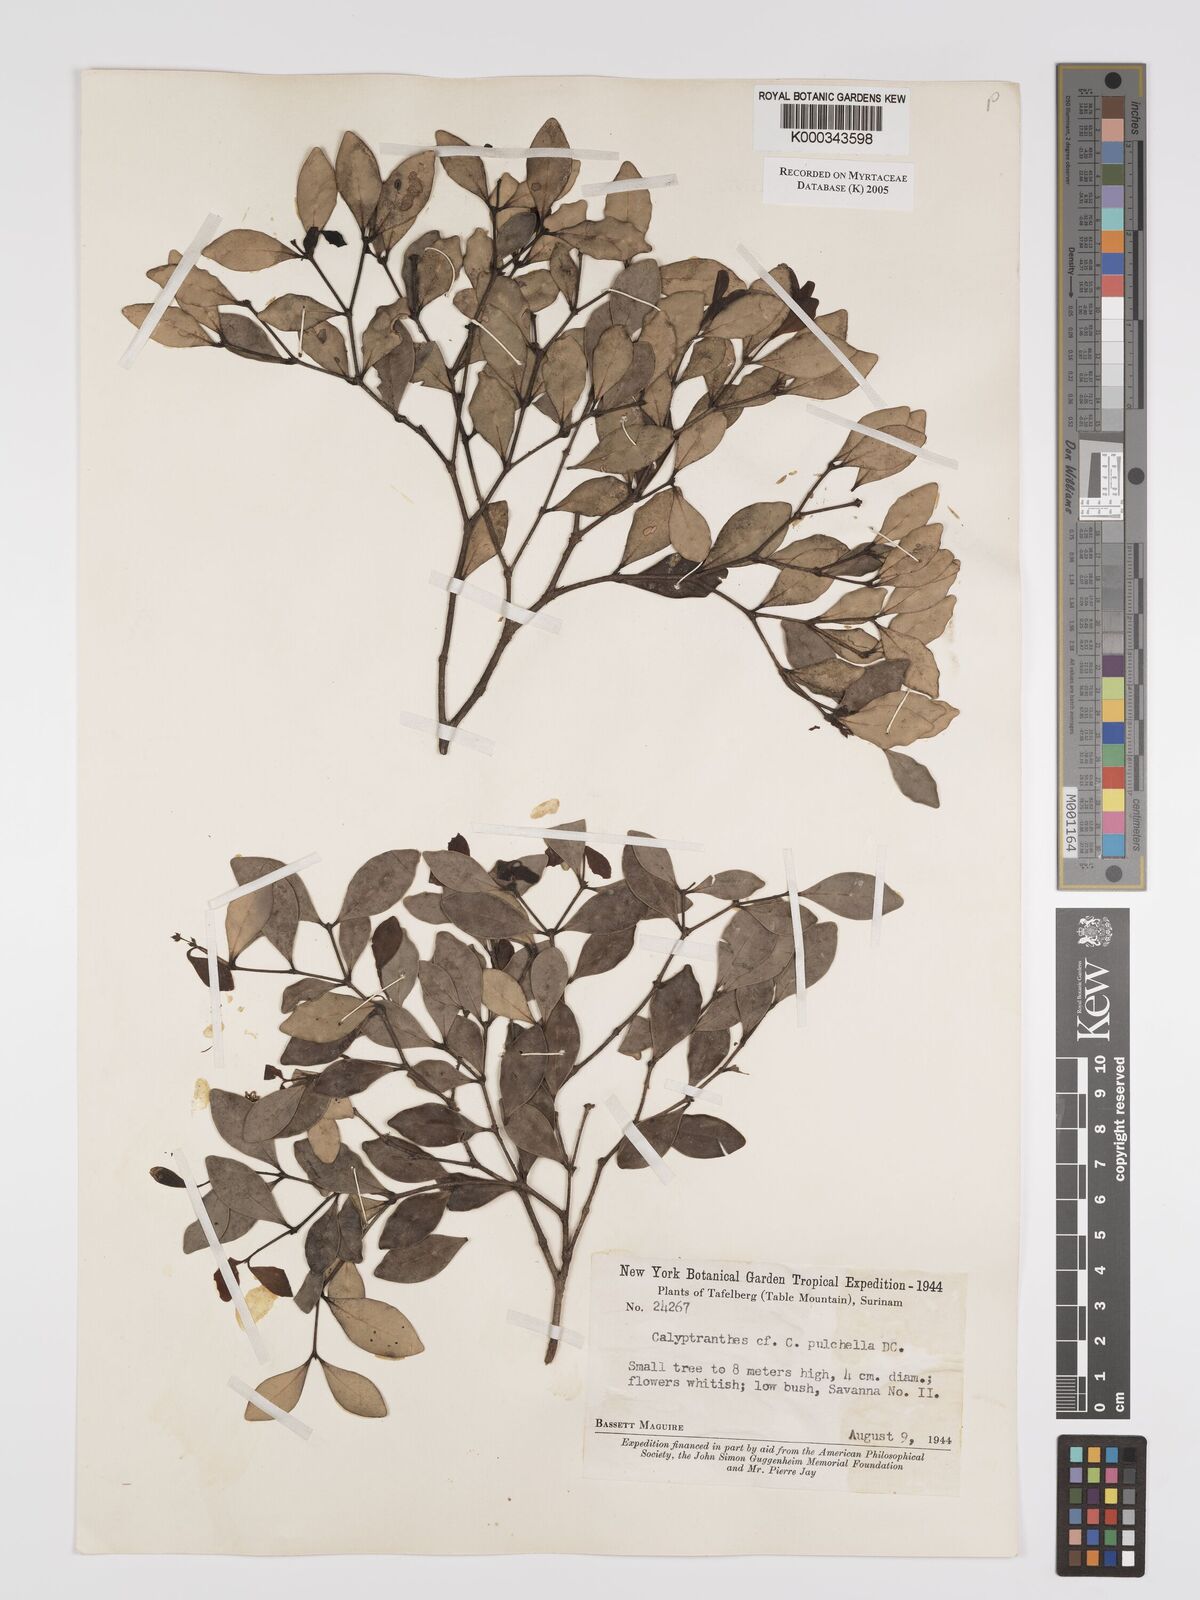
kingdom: Plantae
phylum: Tracheophyta
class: Magnoliopsida
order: Myrtales
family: Myrtaceae
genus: Myrcia
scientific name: Myrcia pulchella
